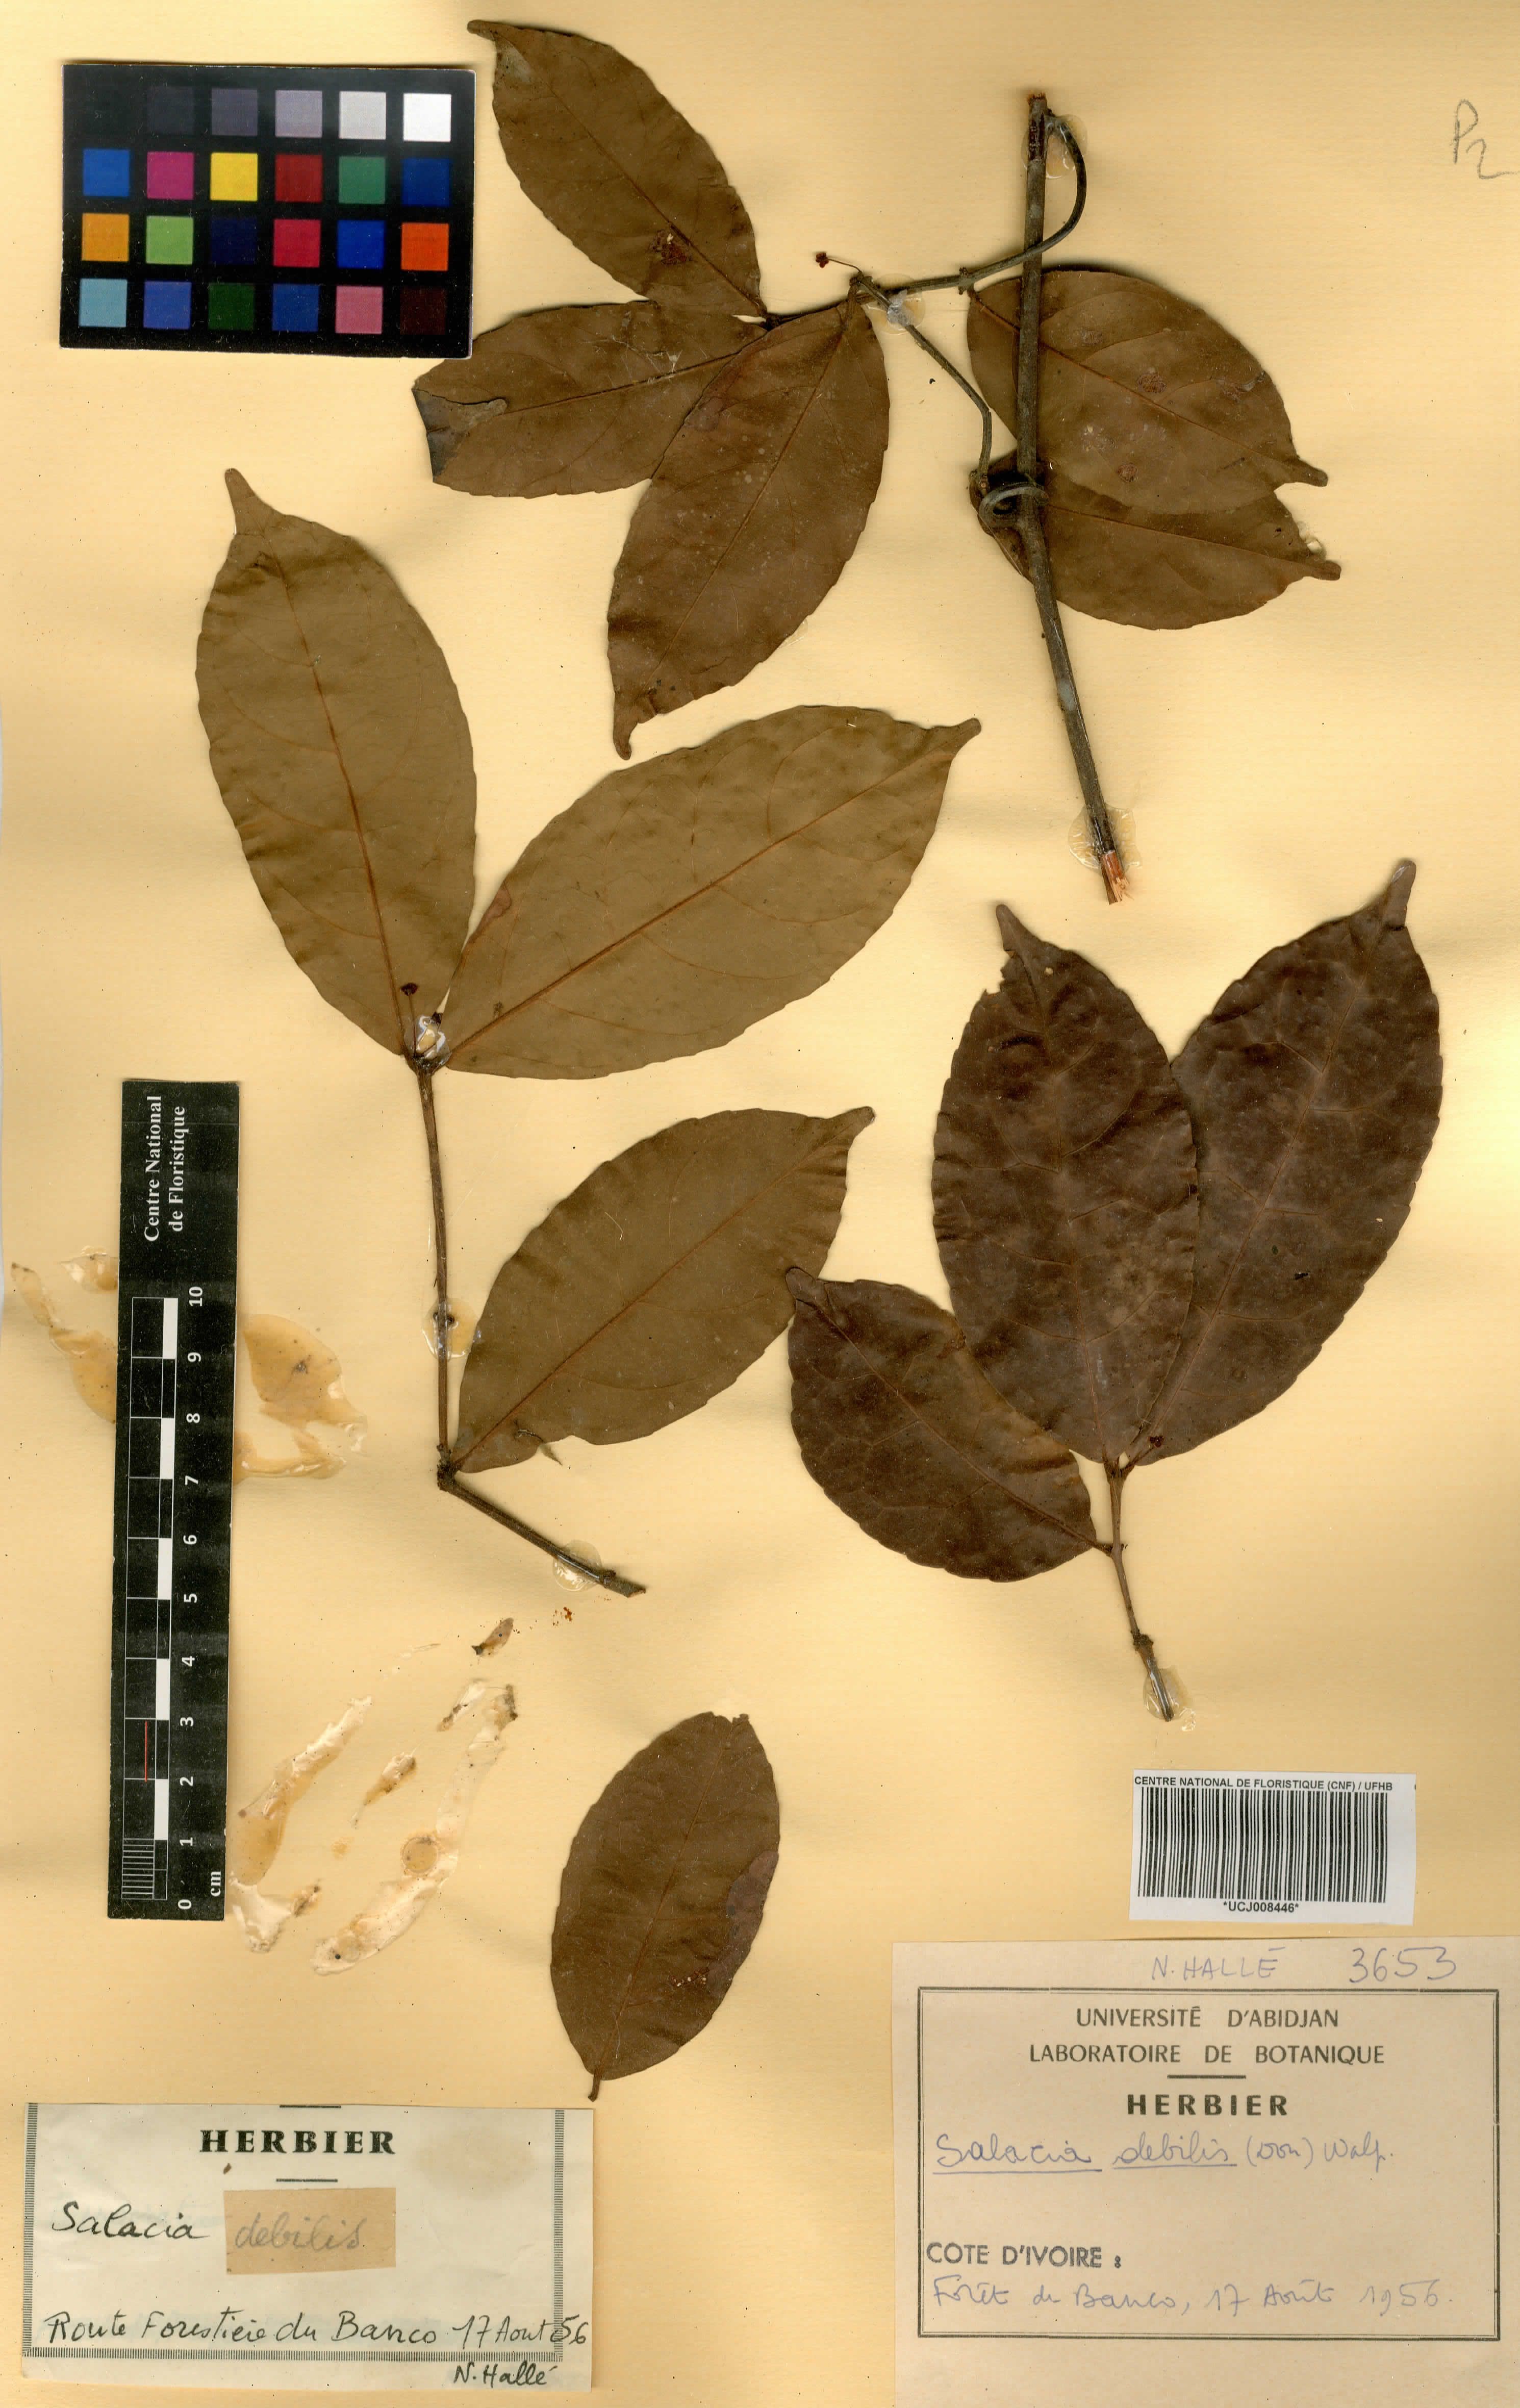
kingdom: Plantae
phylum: Tracheophyta
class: Magnoliopsida
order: Celastrales
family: Celastraceae
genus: Salacia
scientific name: Salacia debilis
